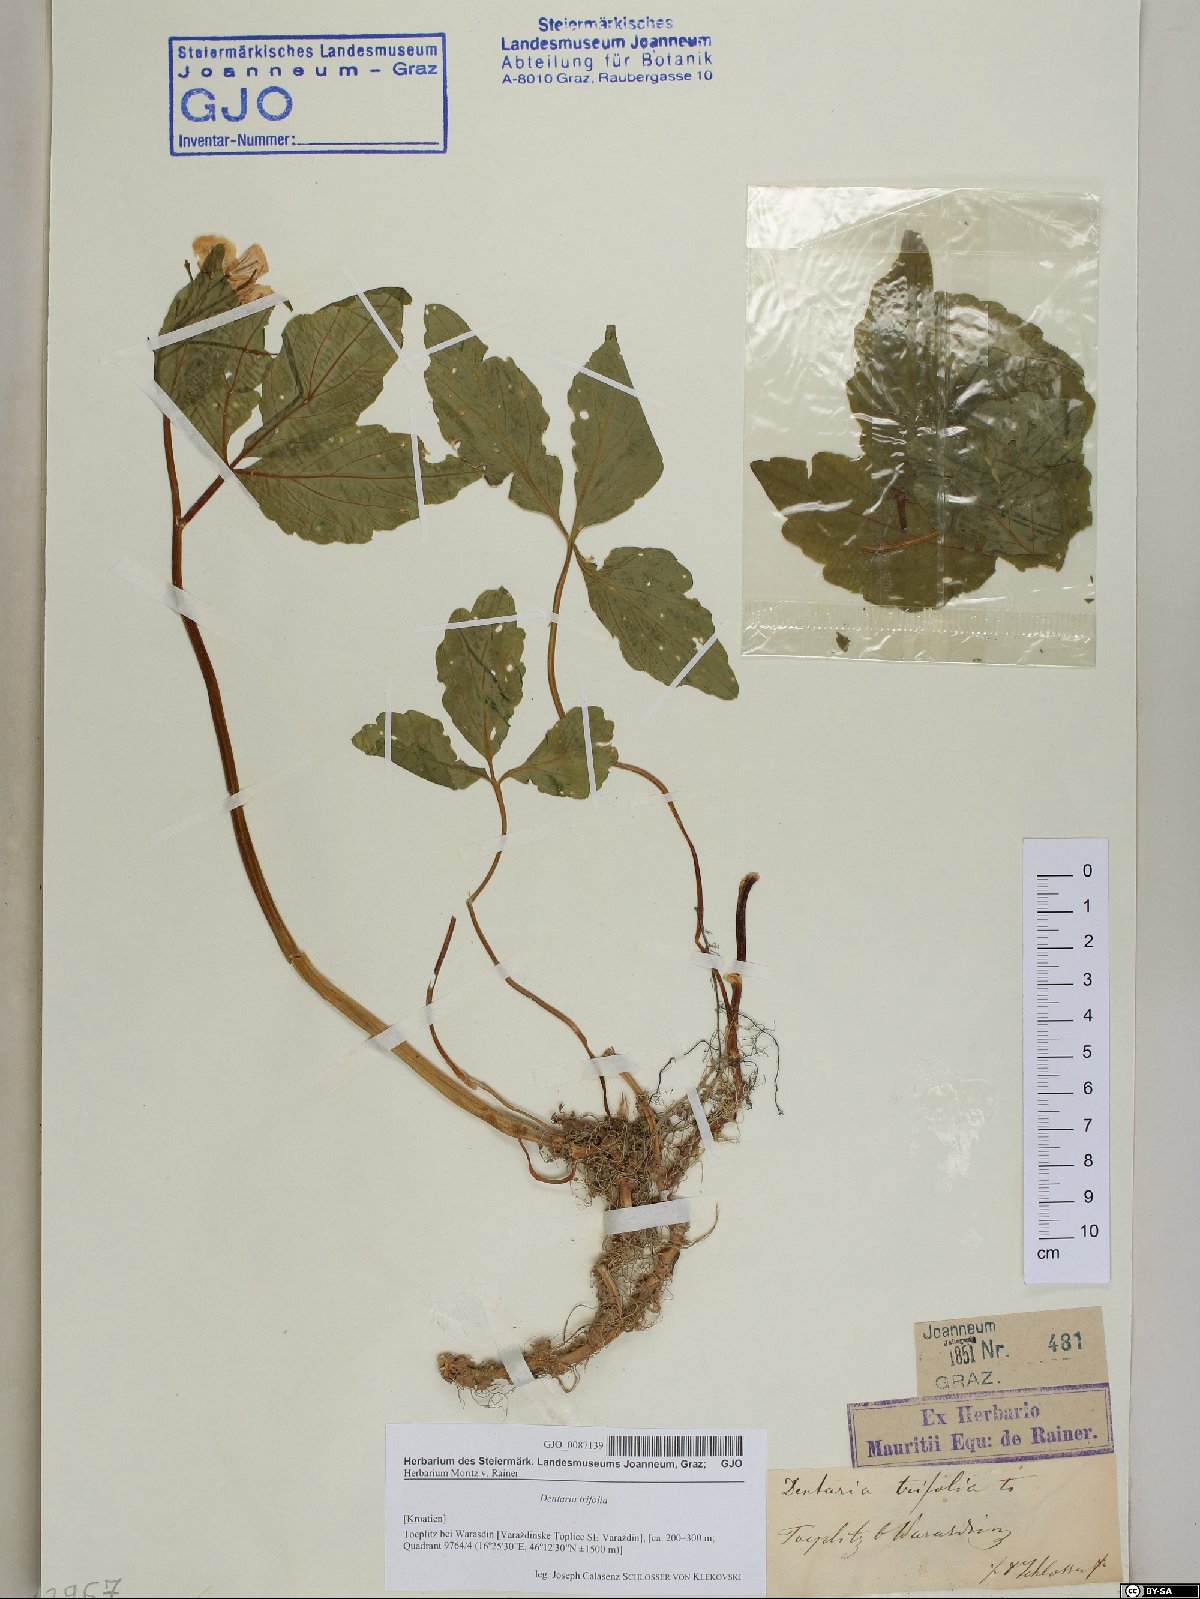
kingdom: Plantae
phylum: Tracheophyta
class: Magnoliopsida
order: Brassicales
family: Brassicaceae
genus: Cardamine
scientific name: Cardamine waldsteinii
